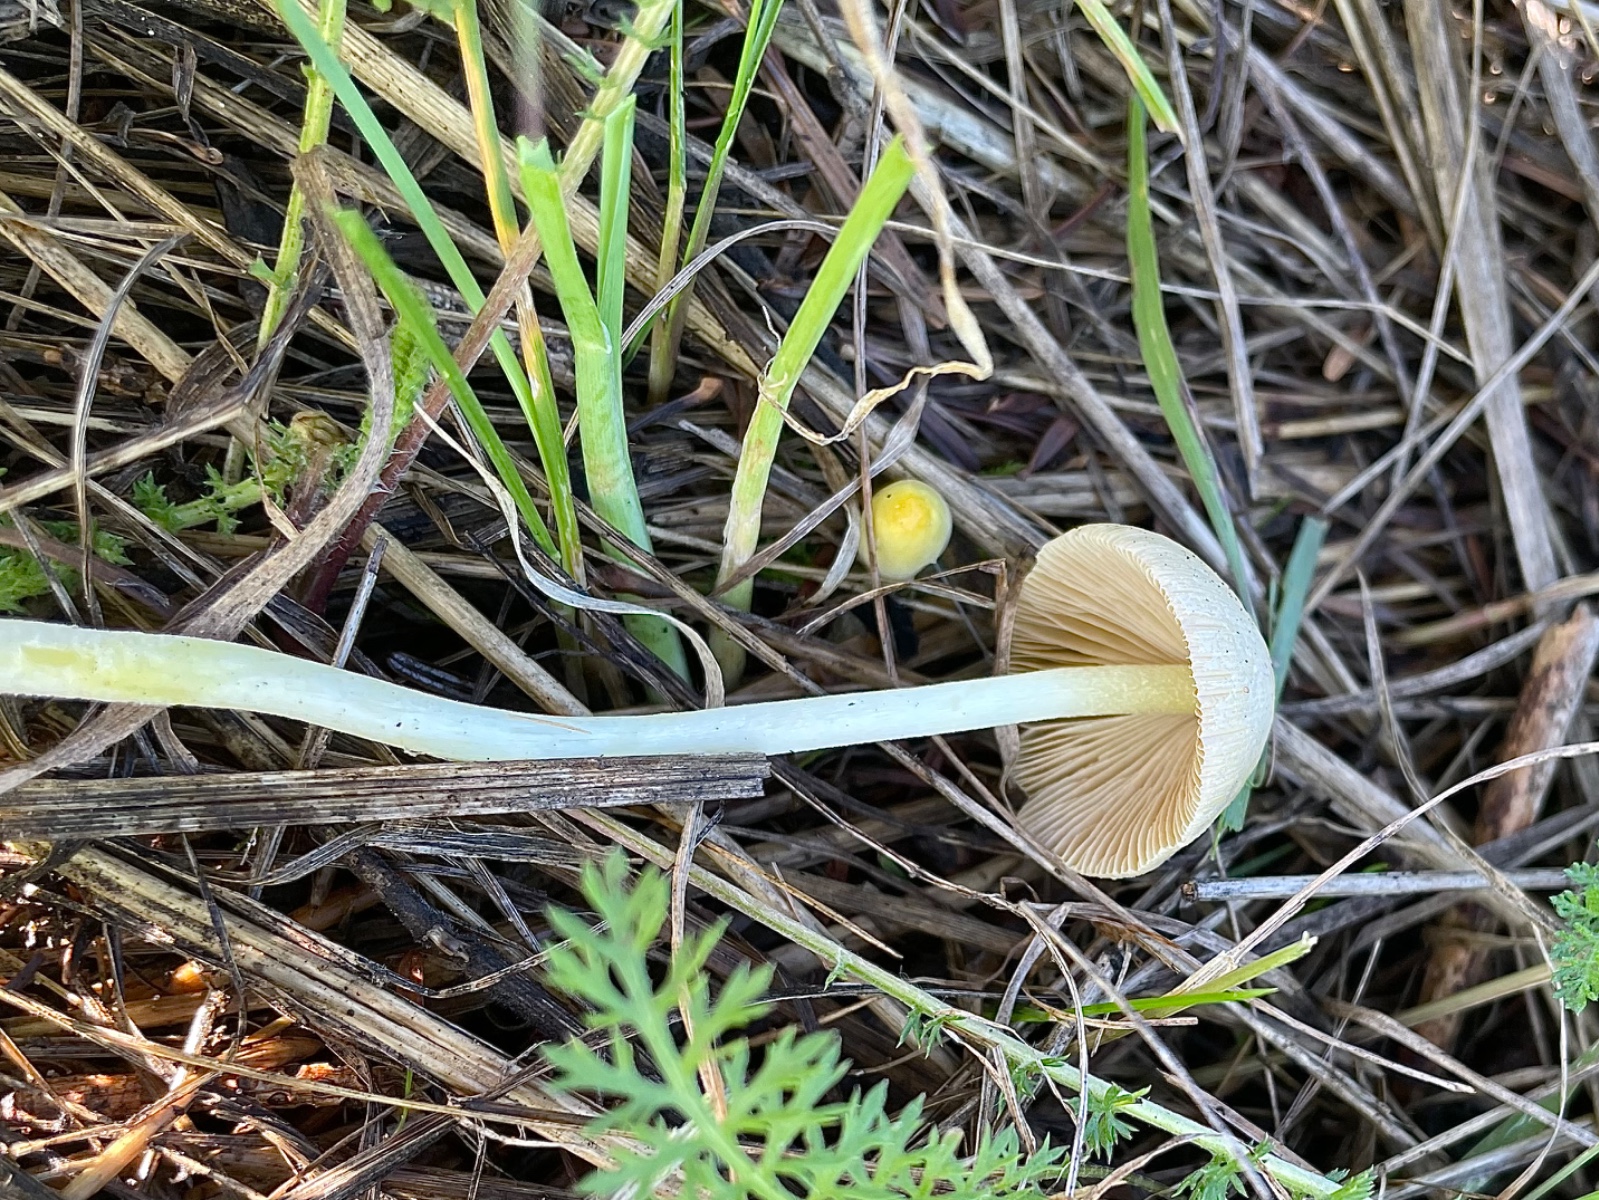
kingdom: Fungi
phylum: Basidiomycota
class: Agaricomycetes
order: Agaricales
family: Bolbitiaceae
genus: Bolbitius
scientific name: Bolbitius titubans
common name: almindelig gulhat
